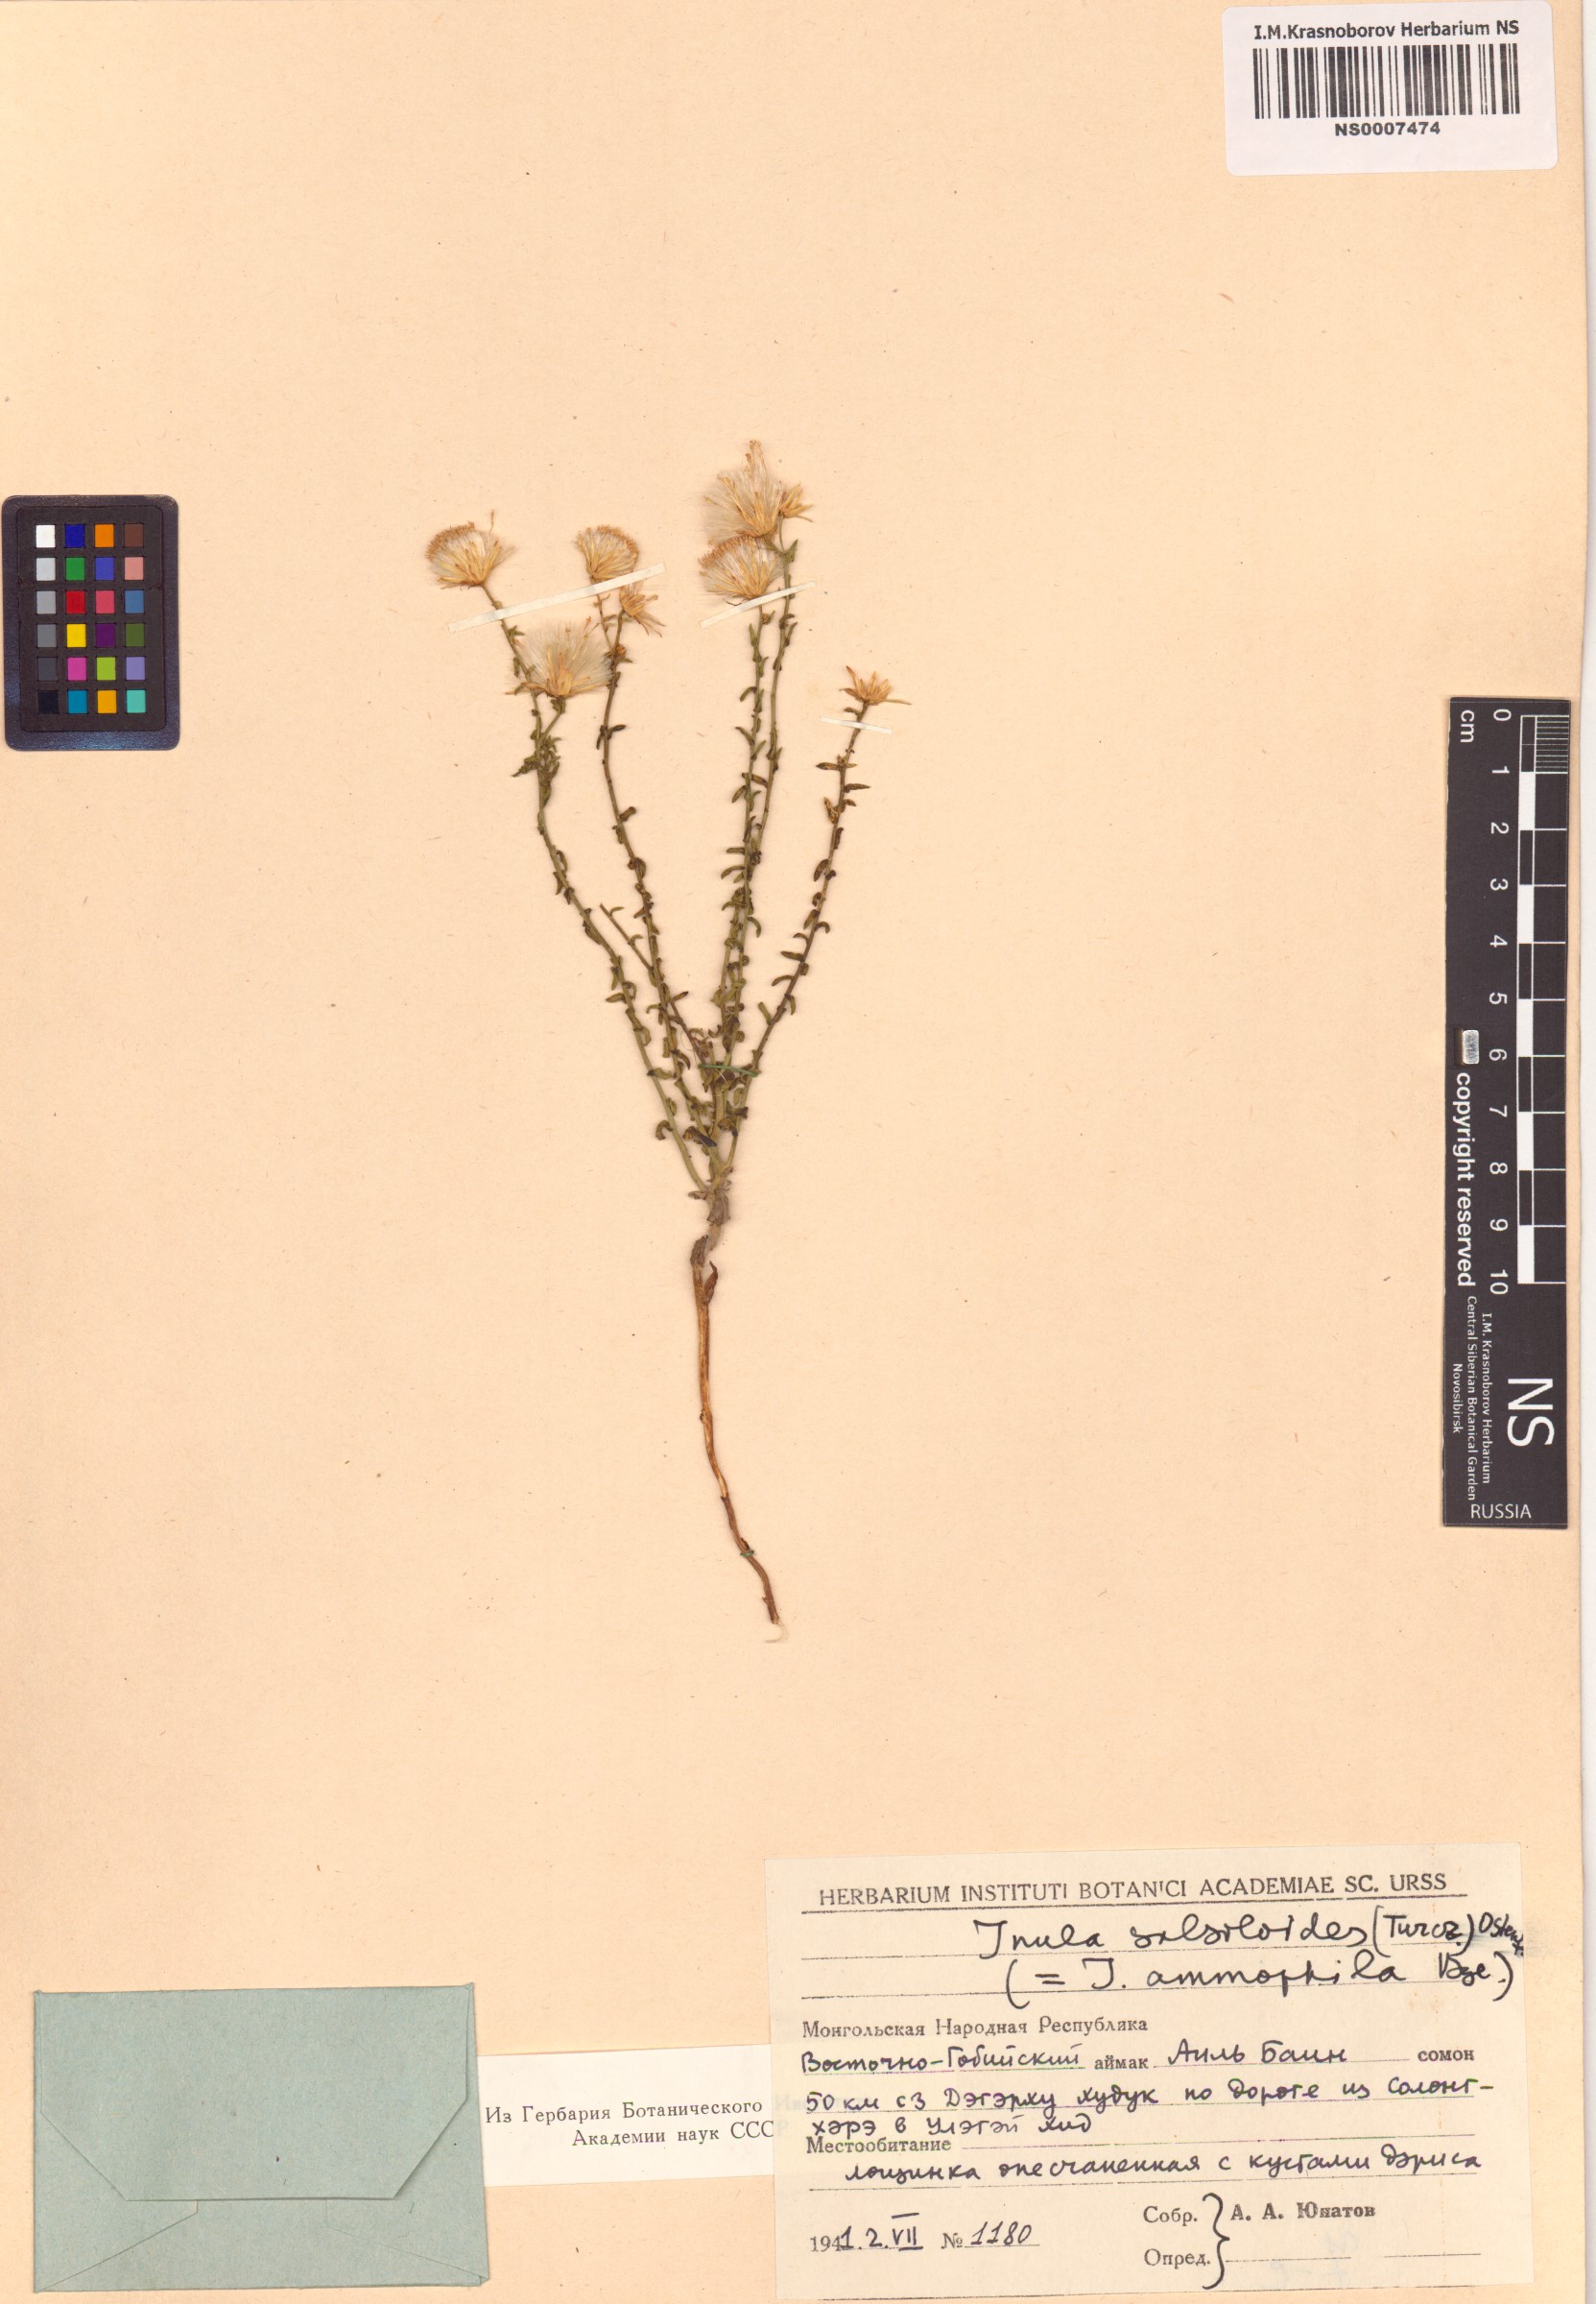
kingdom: Plantae
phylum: Tracheophyta
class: Magnoliopsida
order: Asterales
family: Asteraceae
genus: Inula
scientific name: Inula salsoloides
